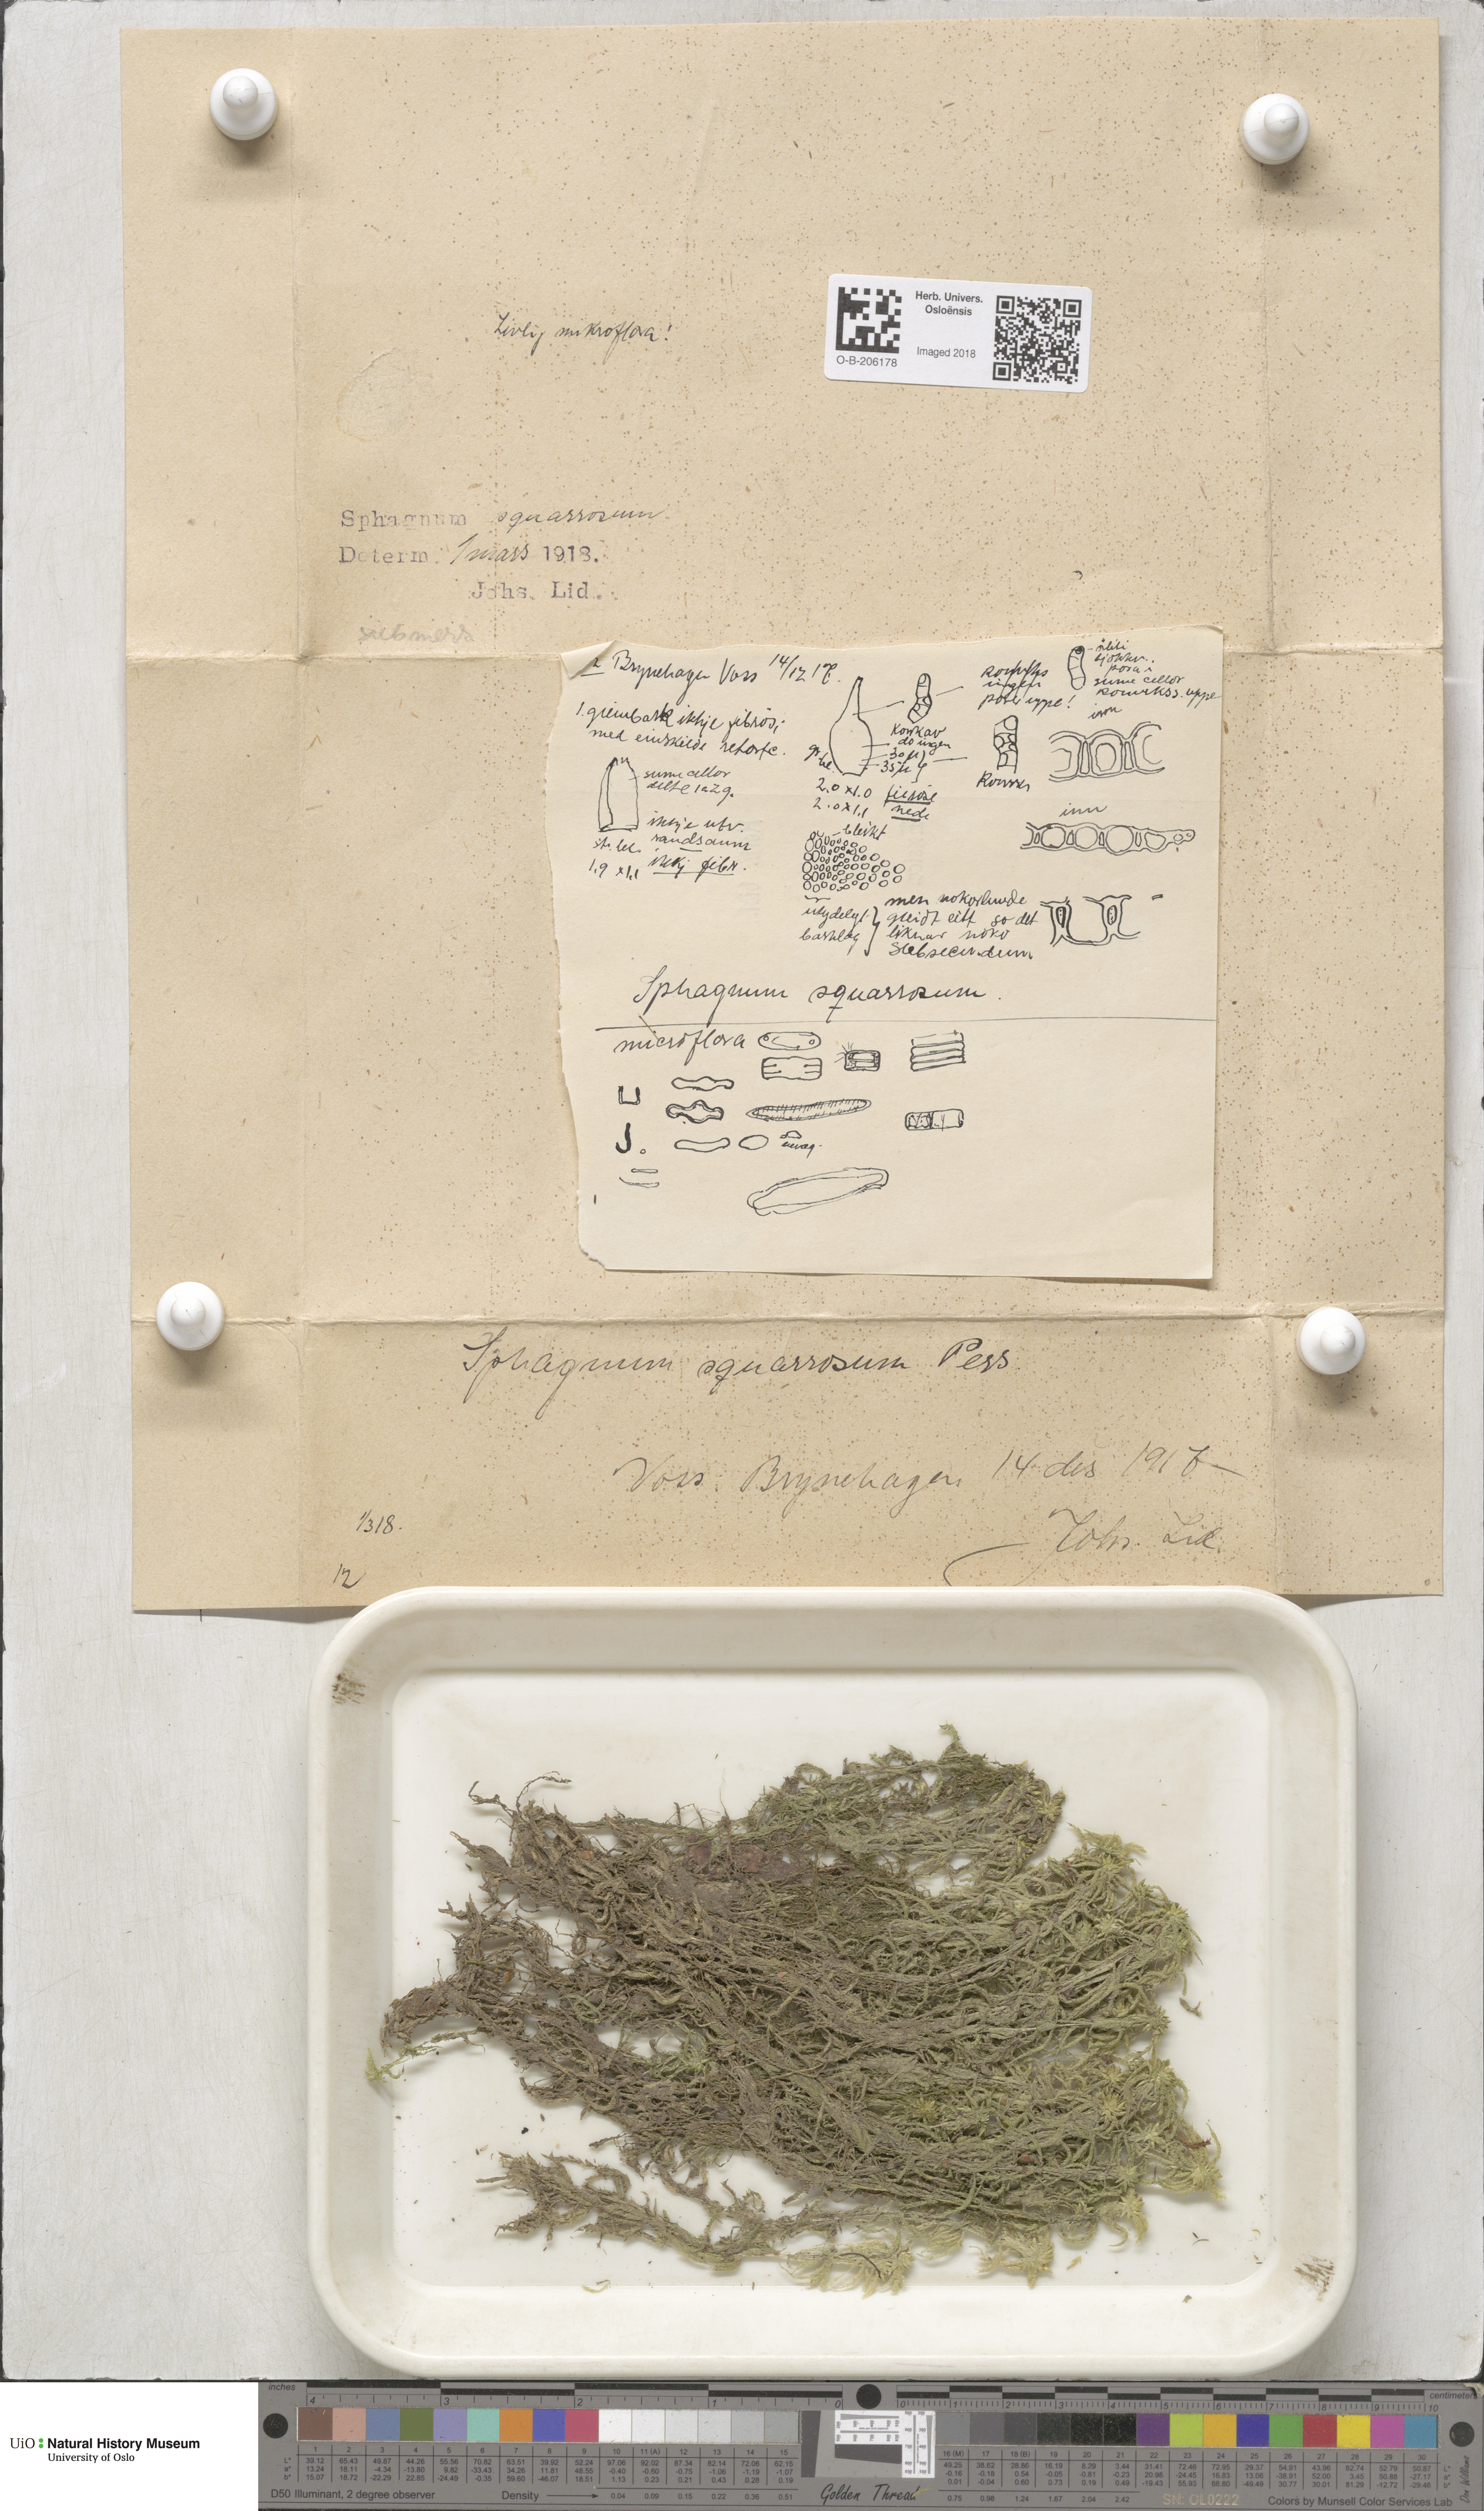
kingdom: Plantae
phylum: Bryophyta
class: Sphagnopsida
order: Sphagnales
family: Sphagnaceae
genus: Sphagnum
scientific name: Sphagnum squarrosum
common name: Shaggy peat moss
